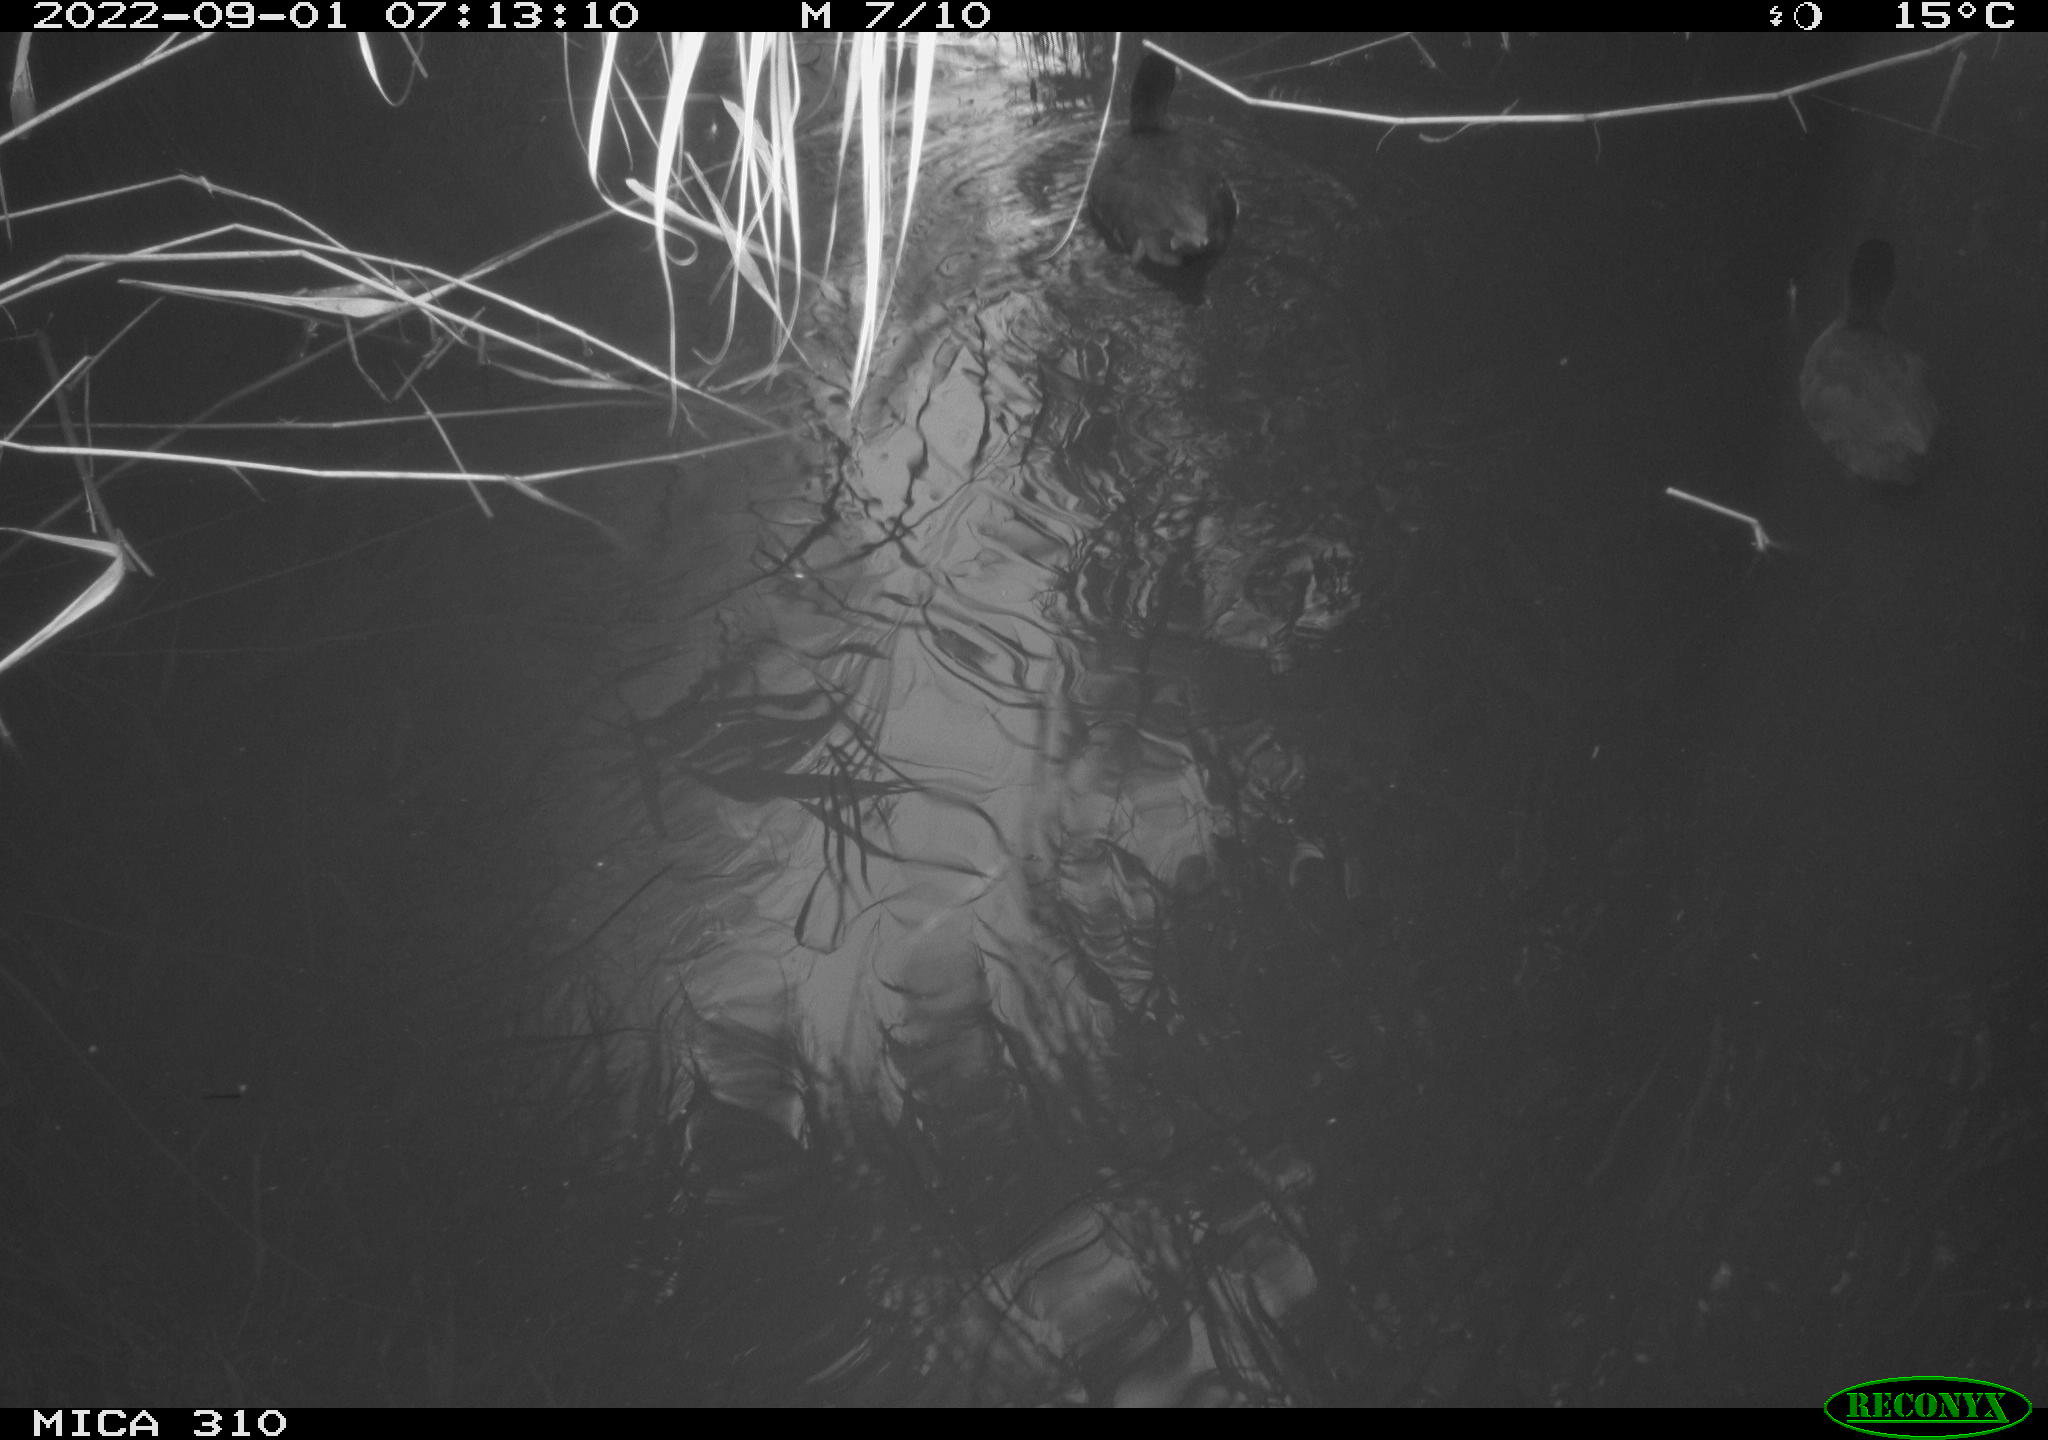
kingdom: Animalia
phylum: Chordata
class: Aves
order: Gruiformes
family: Rallidae
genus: Fulica
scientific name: Fulica atra
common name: Eurasian coot
